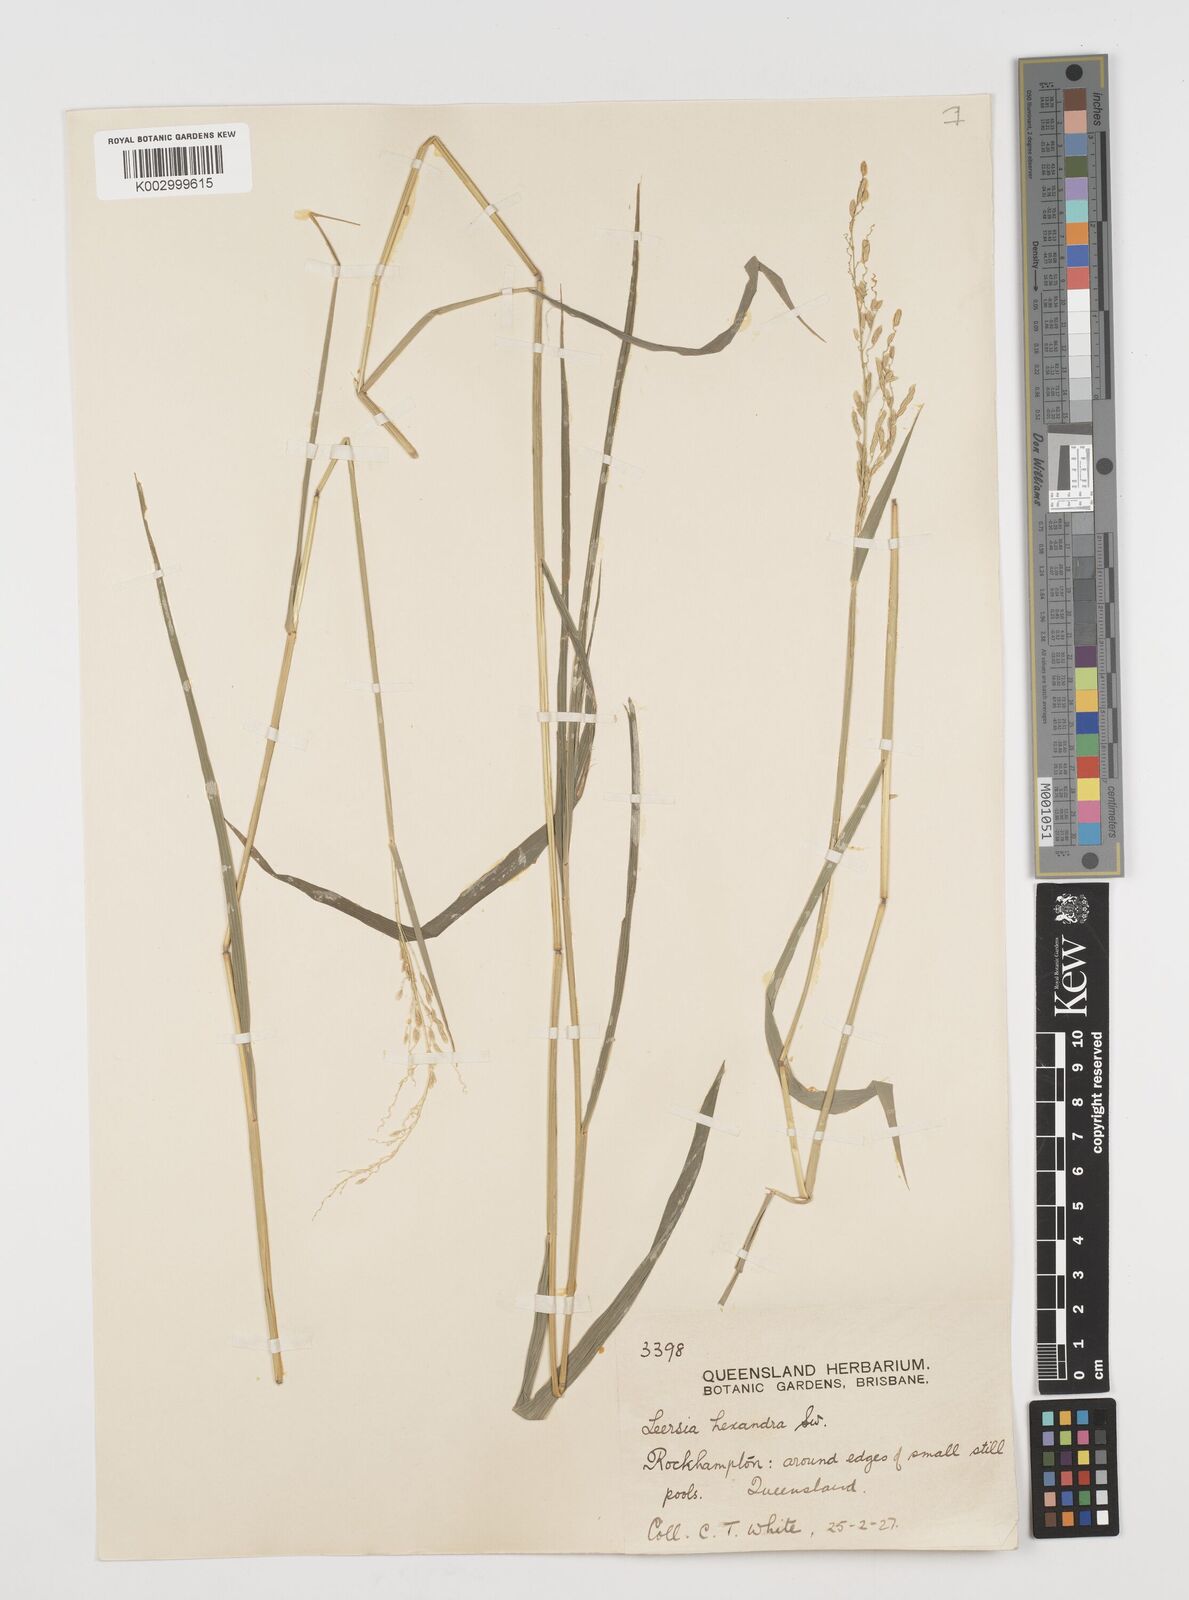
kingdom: Plantae
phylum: Tracheophyta
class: Liliopsida
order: Poales
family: Poaceae
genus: Leersia
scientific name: Leersia hexandra
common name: Southern cut grass
